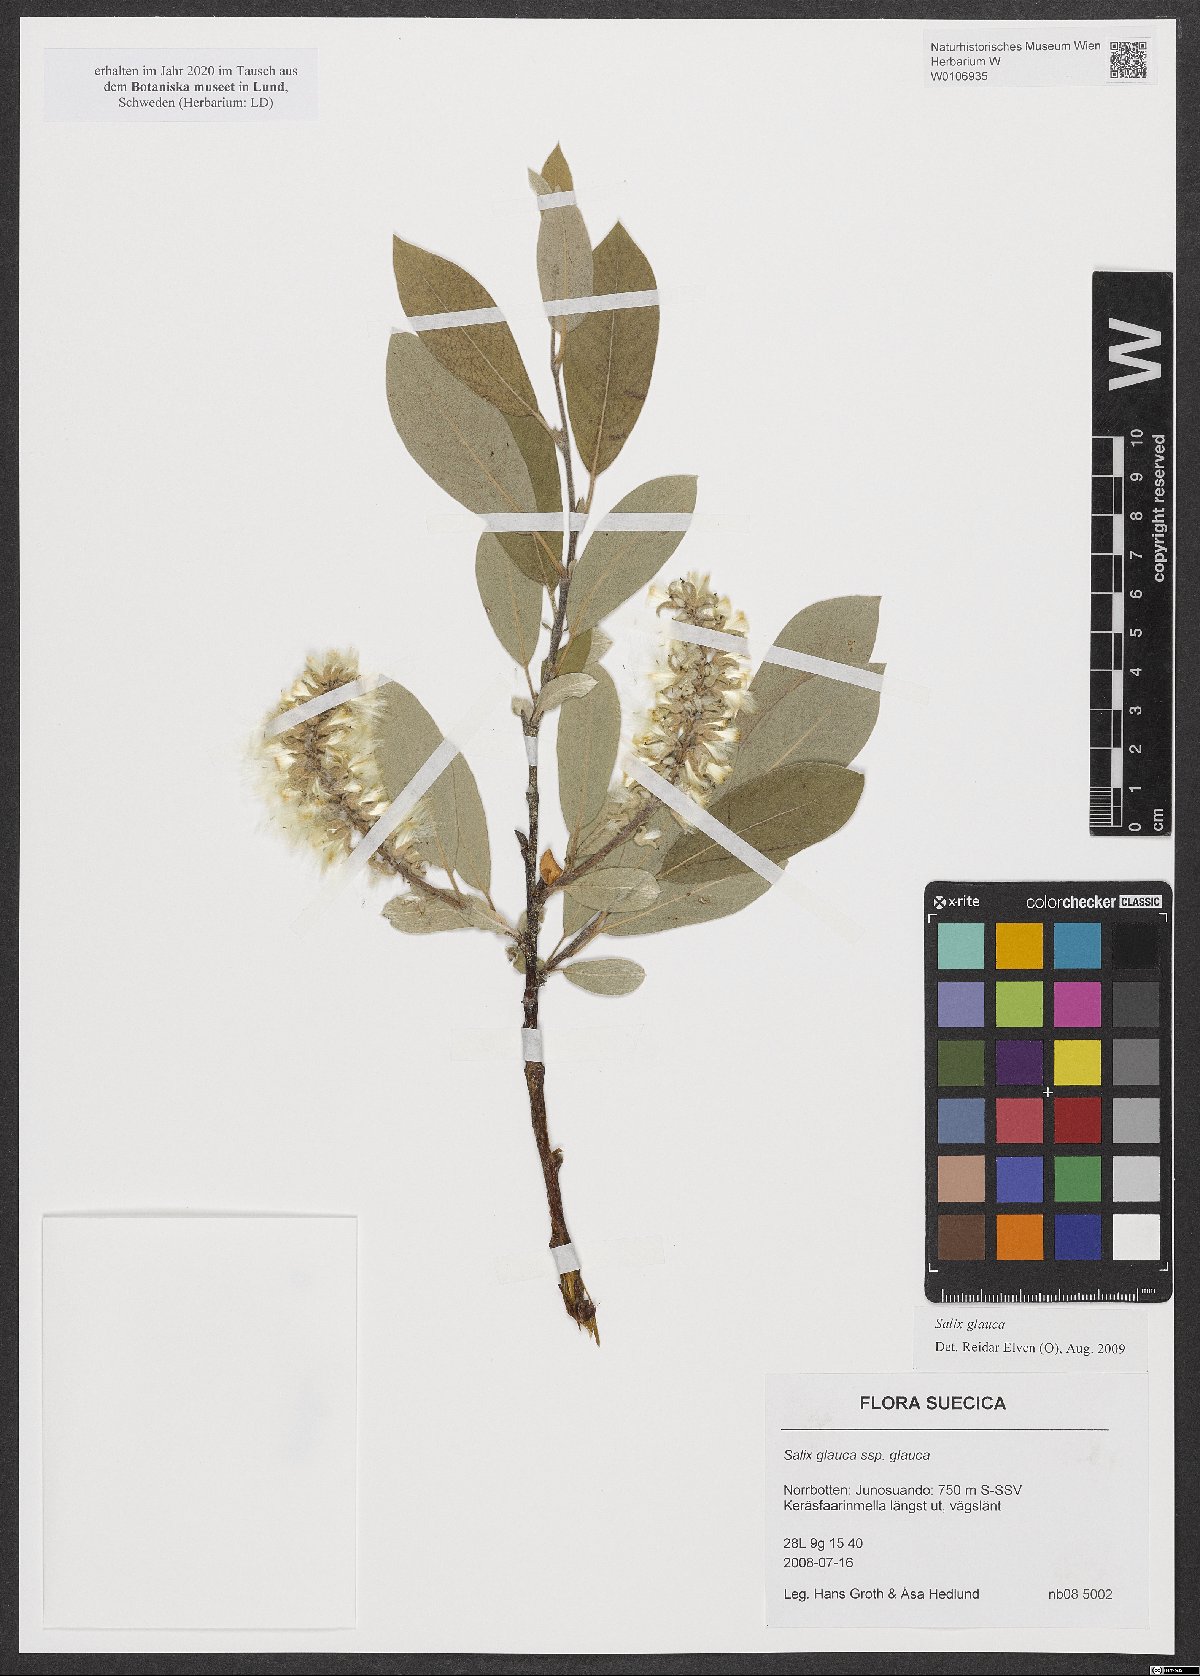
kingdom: Plantae
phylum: Tracheophyta
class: Magnoliopsida
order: Malpighiales
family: Salicaceae
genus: Salix
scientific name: Salix glauca
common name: Glaucous willow
